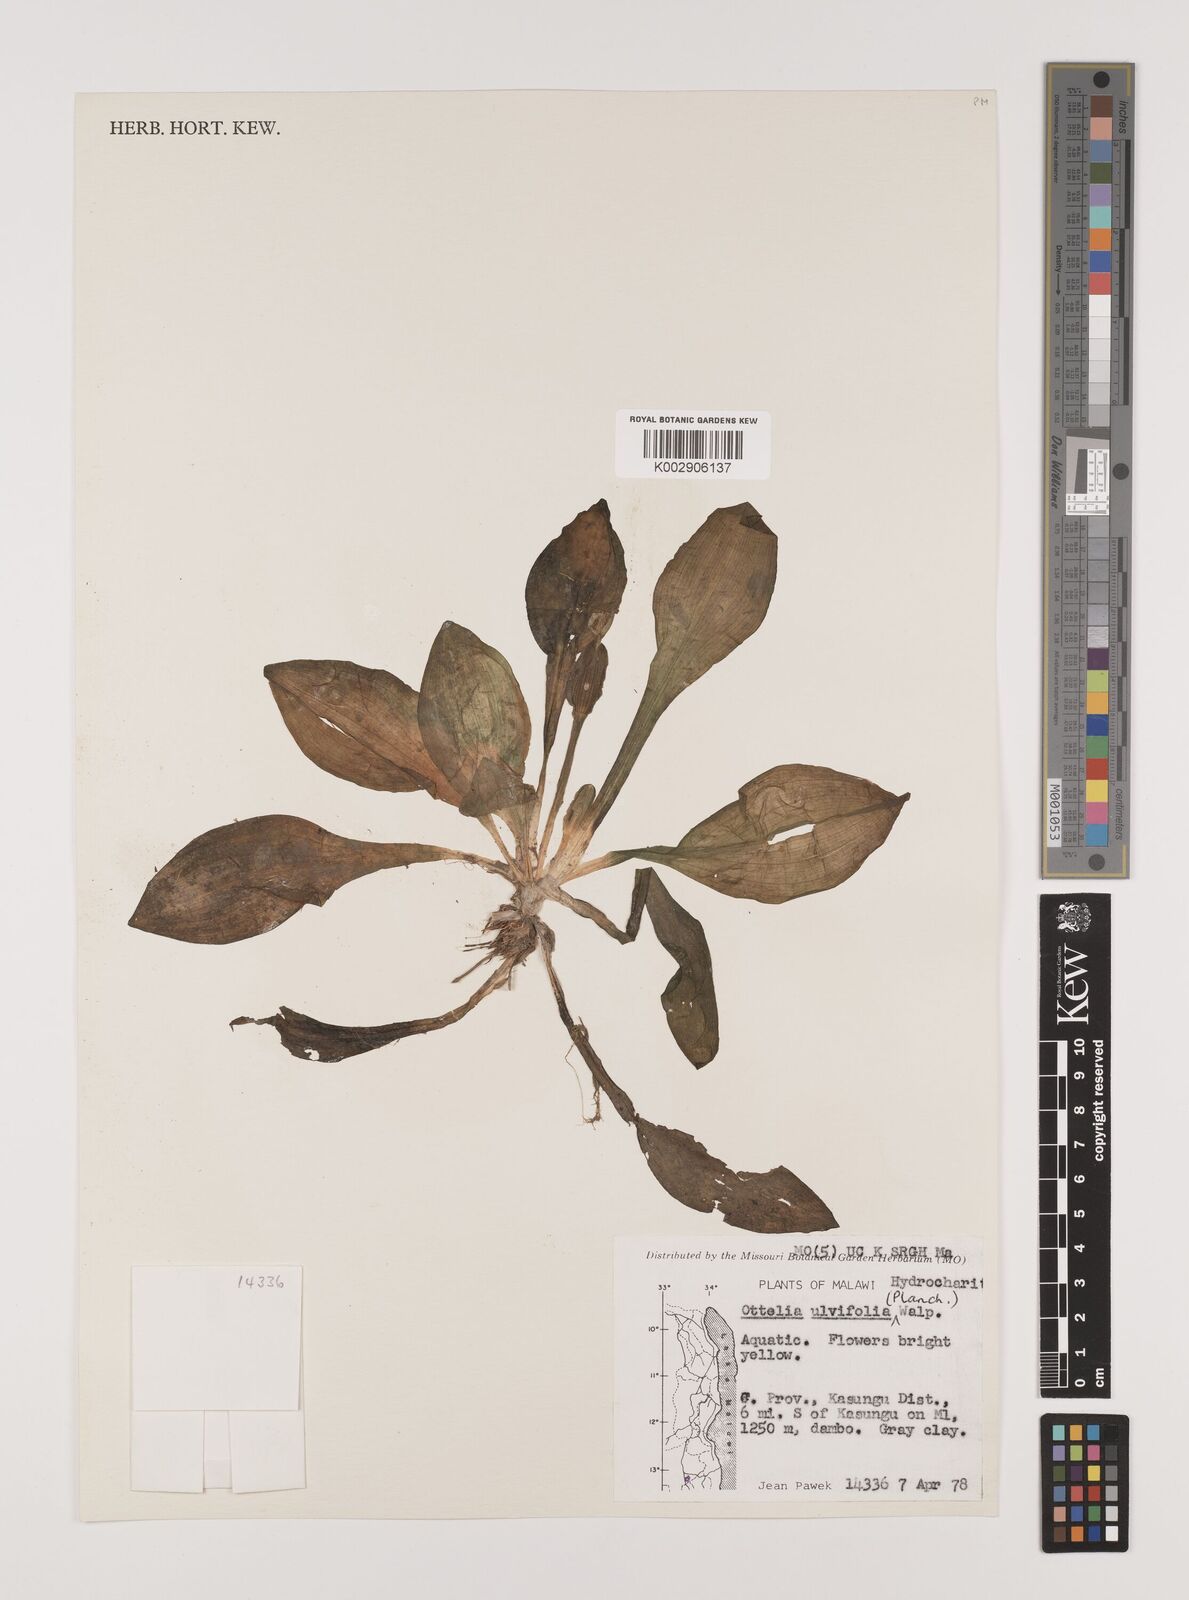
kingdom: Plantae
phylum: Tracheophyta
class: Liliopsida
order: Alismatales
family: Hydrocharitaceae
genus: Ottelia
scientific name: Ottelia ulvifolia
